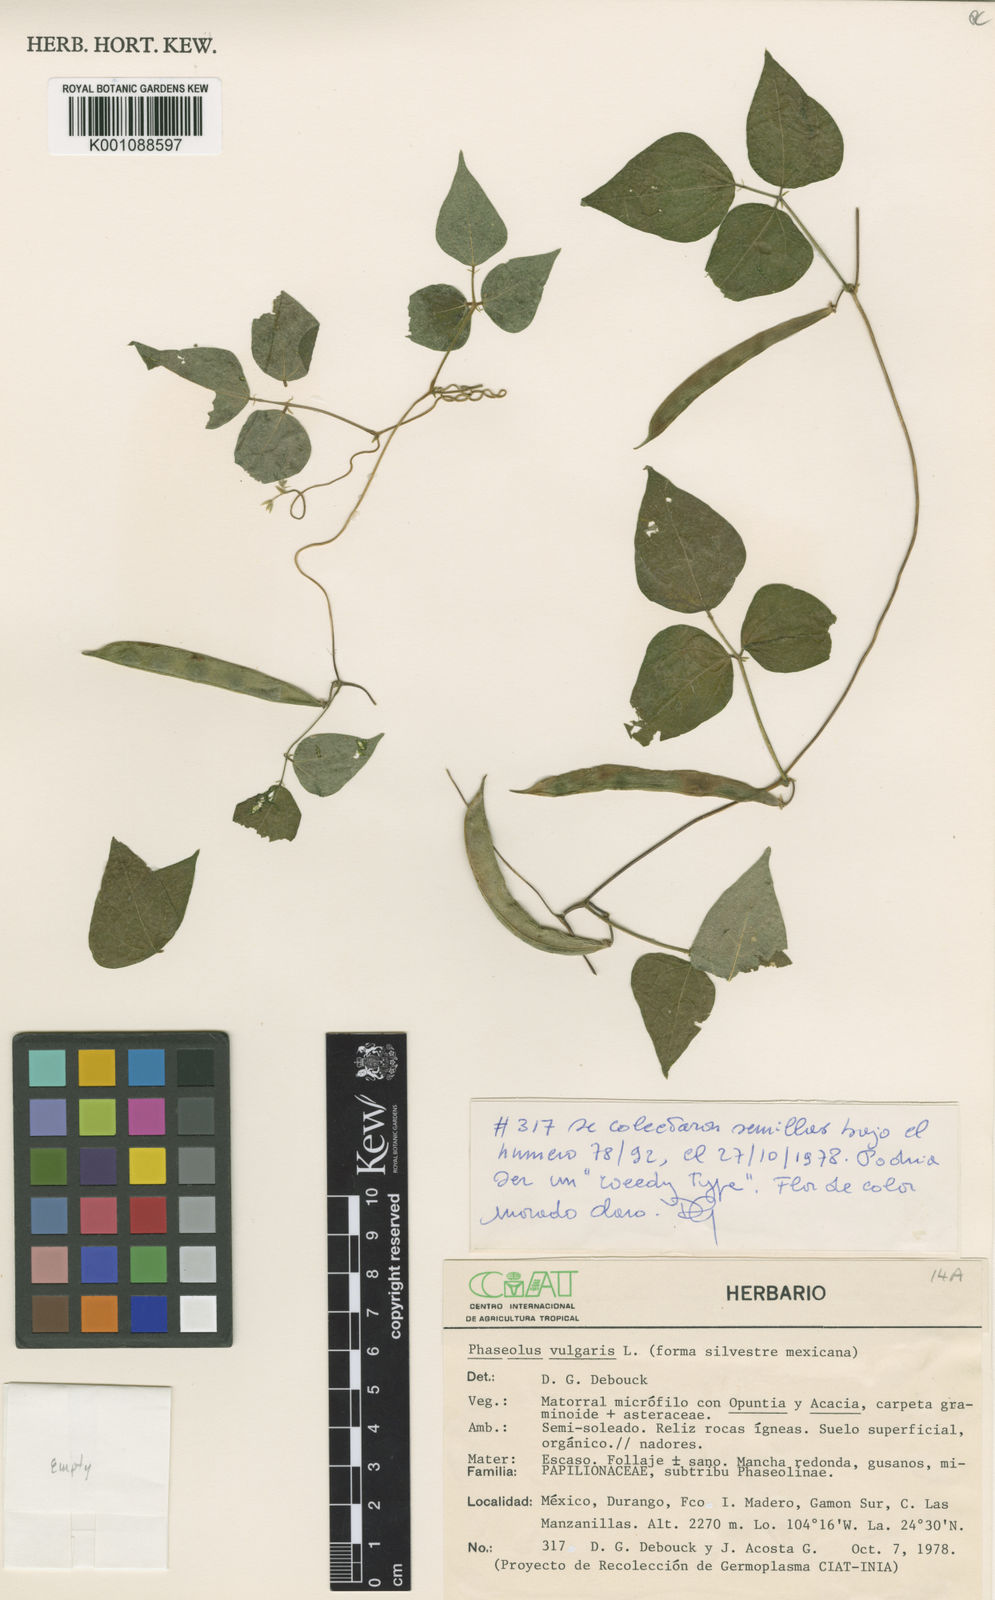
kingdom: Plantae
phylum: Tracheophyta
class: Magnoliopsida
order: Fabales
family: Fabaceae
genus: Phaseolus
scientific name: Phaseolus vulgaris
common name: Bean
